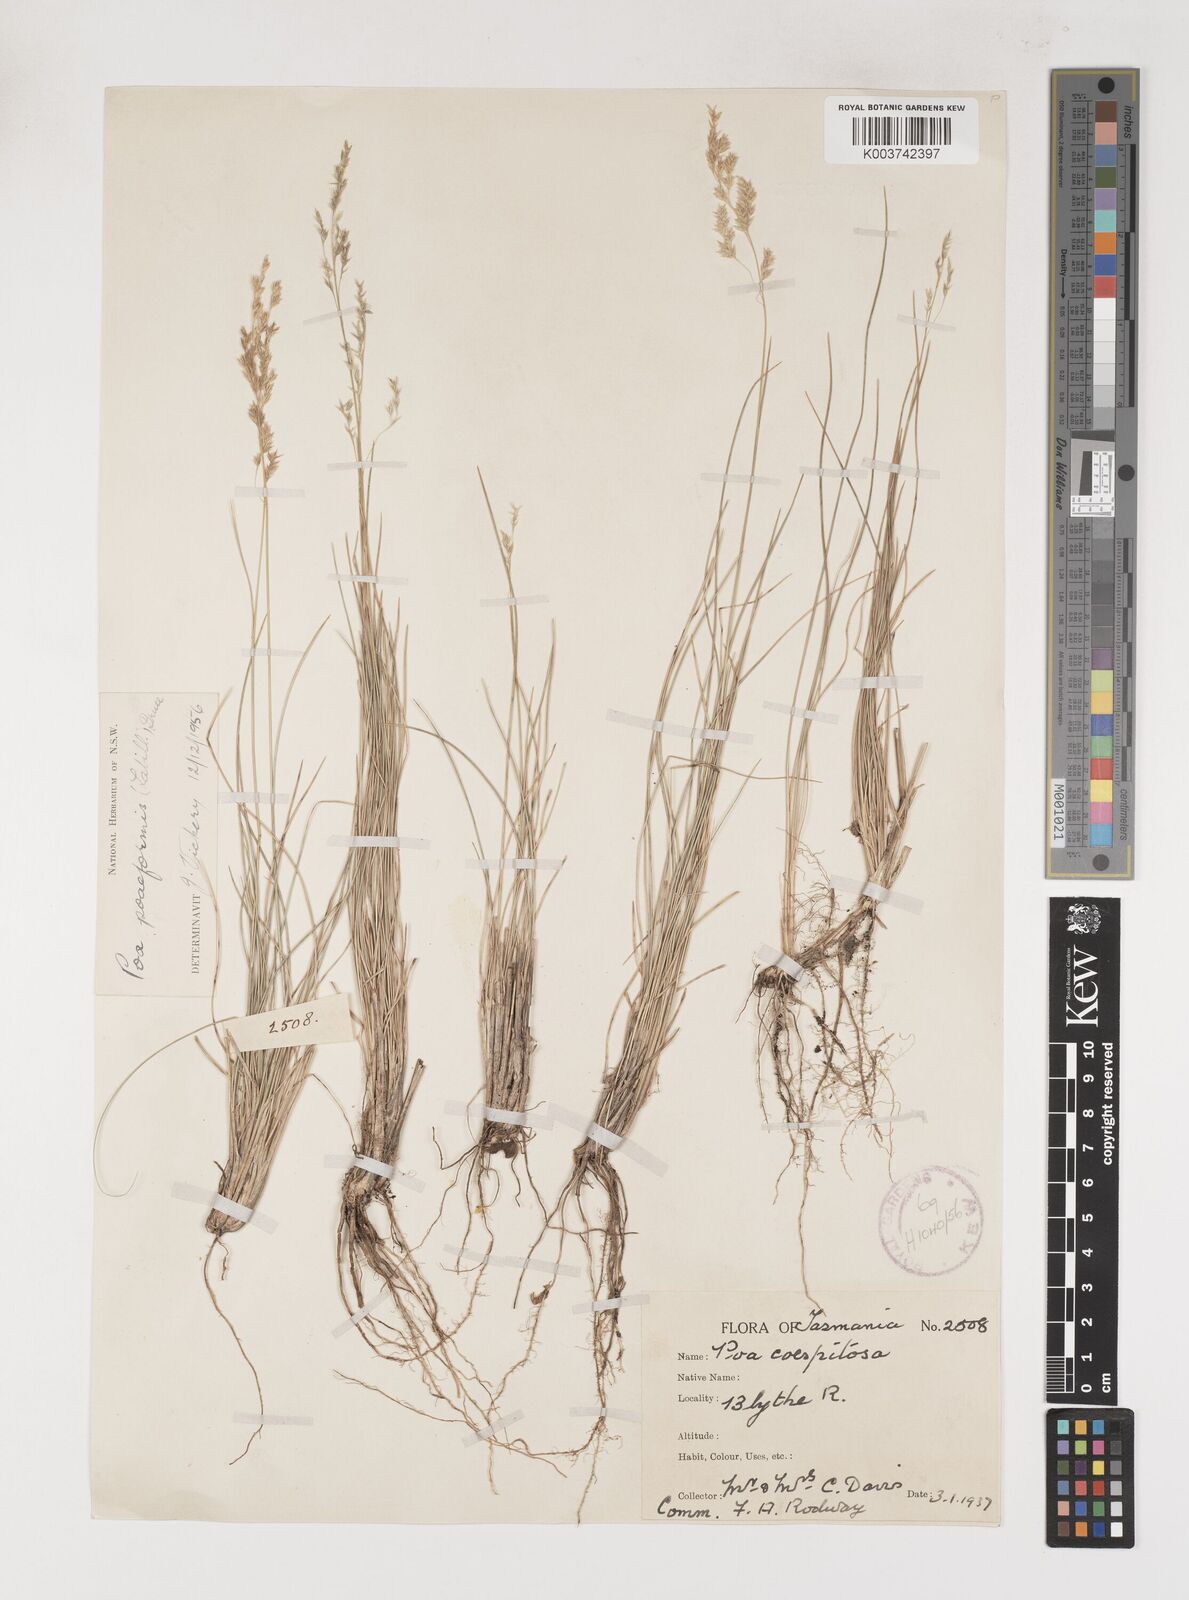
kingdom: Plantae
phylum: Tracheophyta
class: Liliopsida
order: Poales
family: Poaceae
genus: Poa
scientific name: Poa poiformis
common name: Tussock poa
